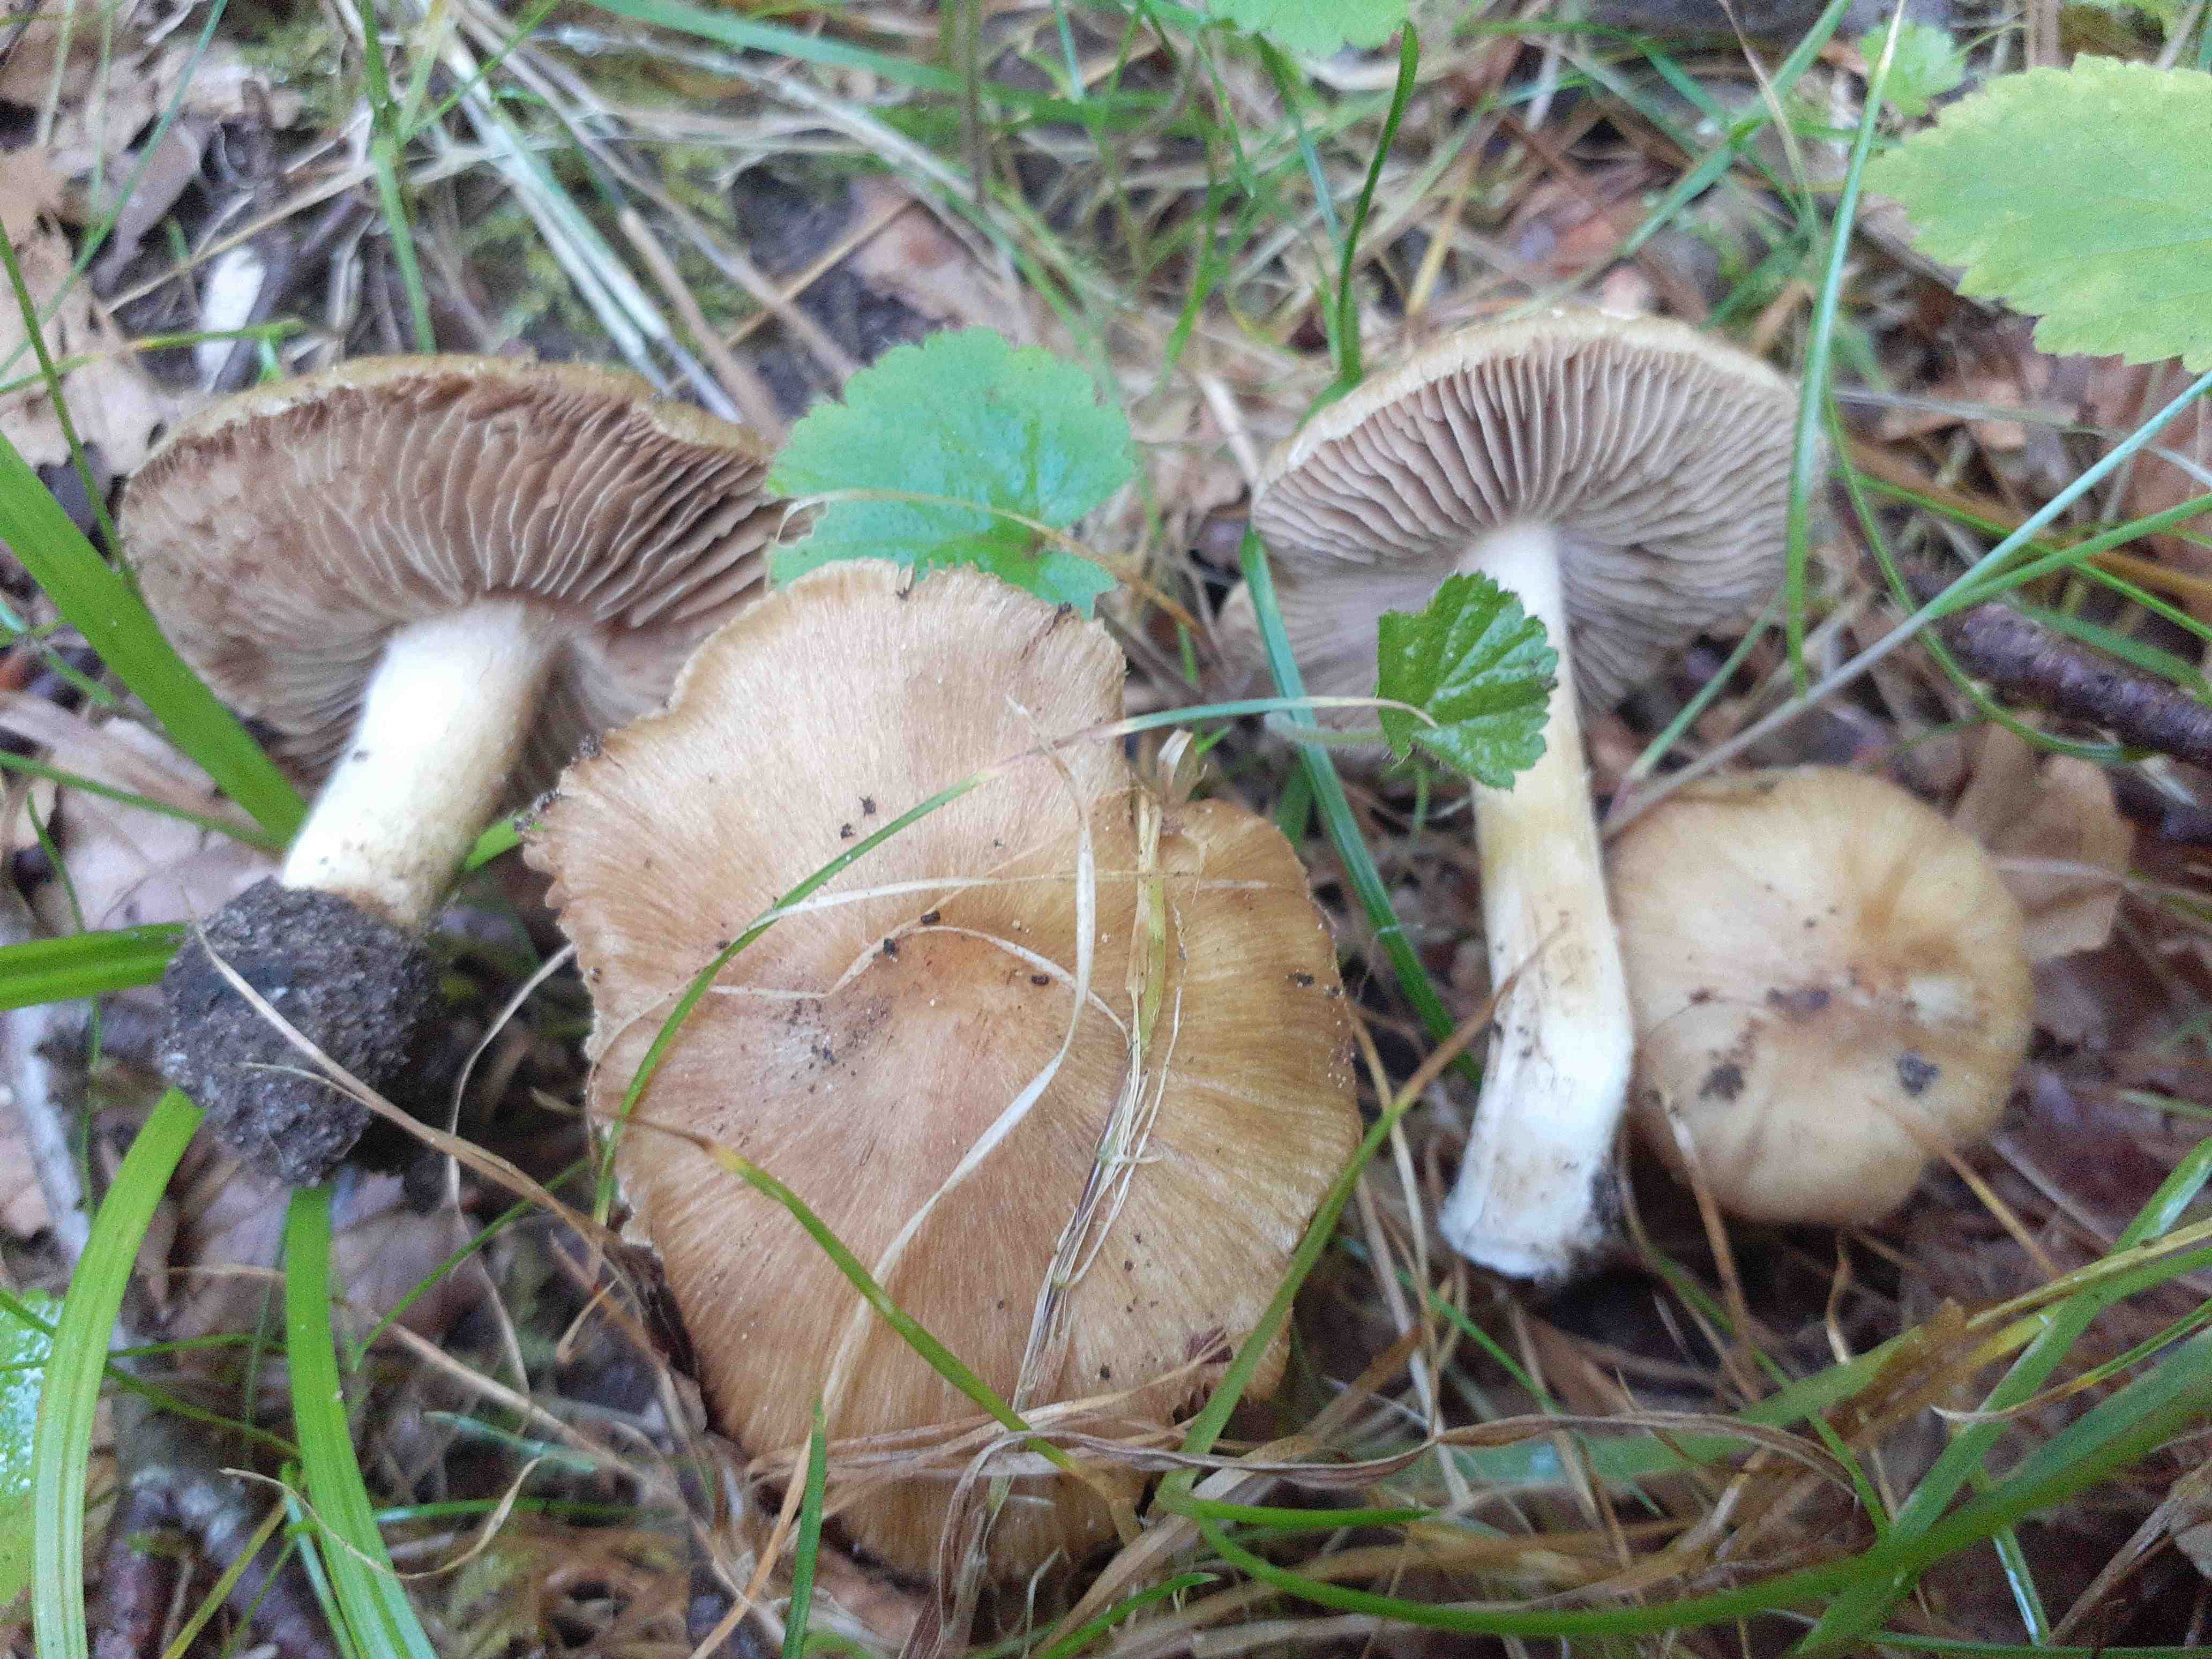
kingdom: Fungi
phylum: Basidiomycota
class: Agaricomycetes
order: Agaricales
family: Inocybaceae
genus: Inocybe
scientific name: Inocybe
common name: trævlhat
